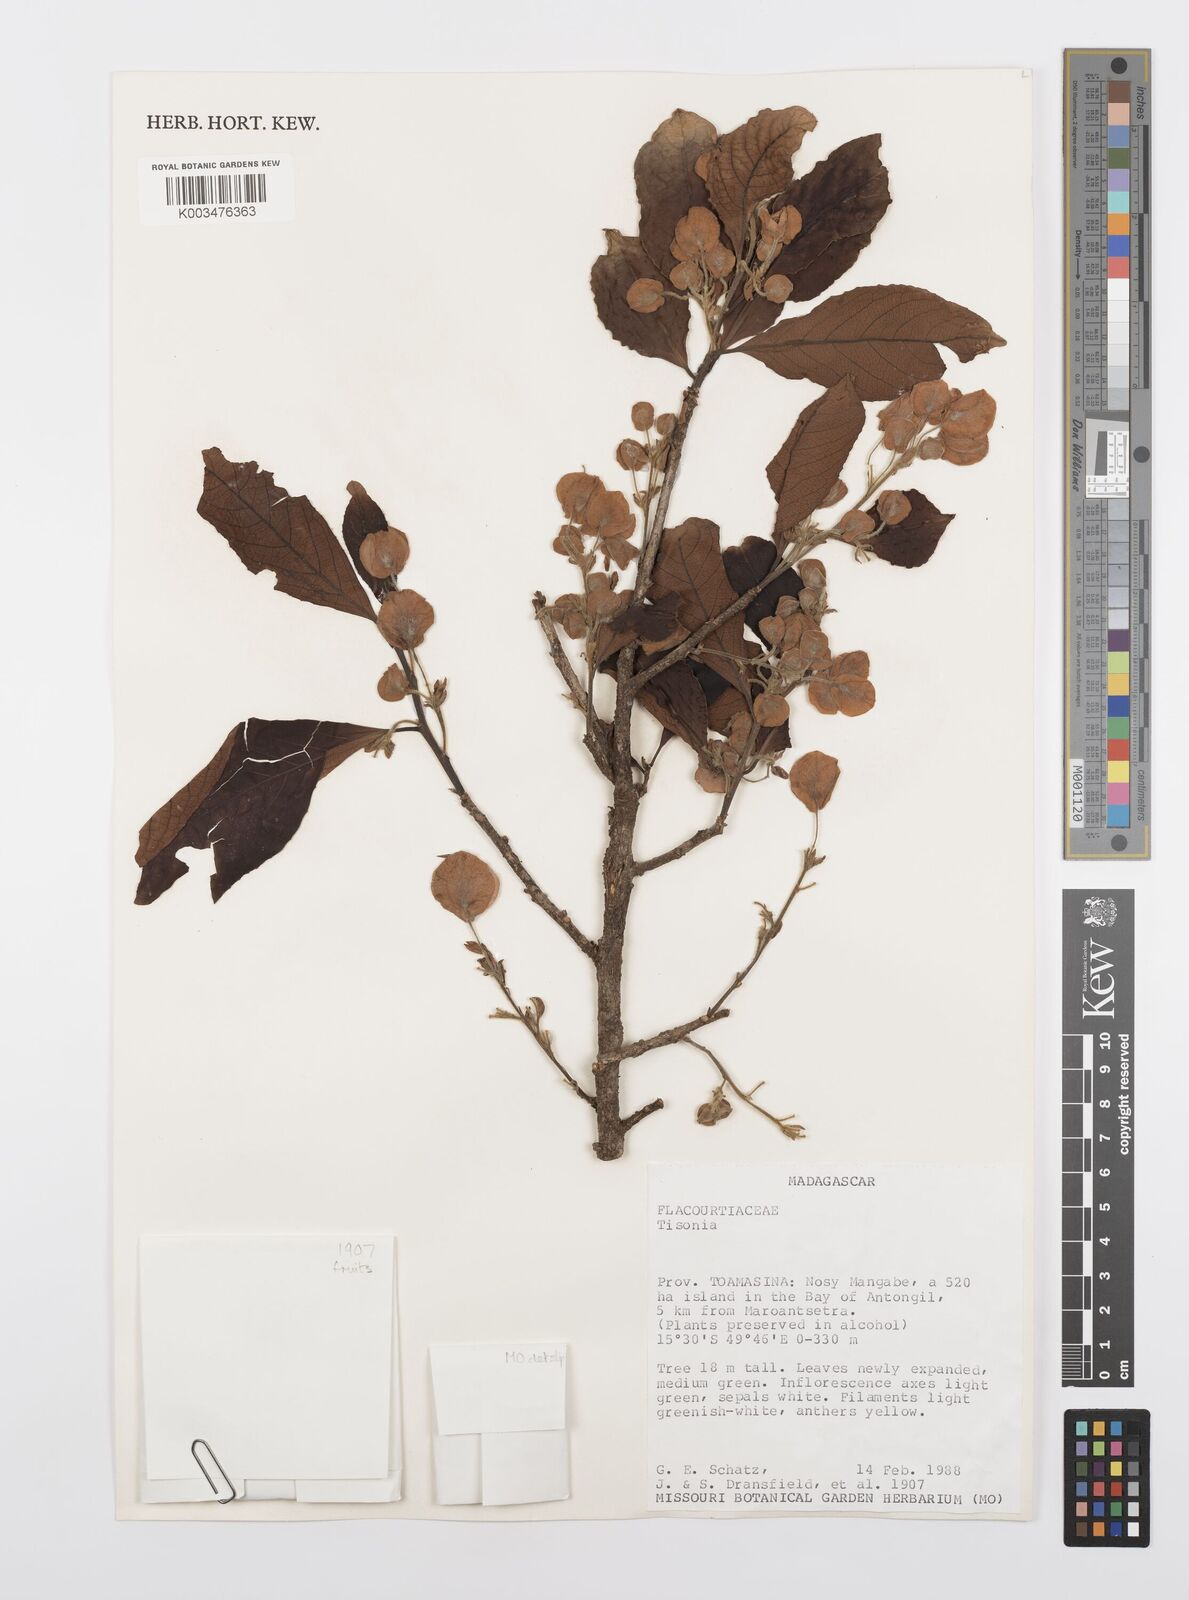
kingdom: Plantae
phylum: Tracheophyta
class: Magnoliopsida
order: Malpighiales
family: Salicaceae
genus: Tisonia
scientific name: Tisonia
